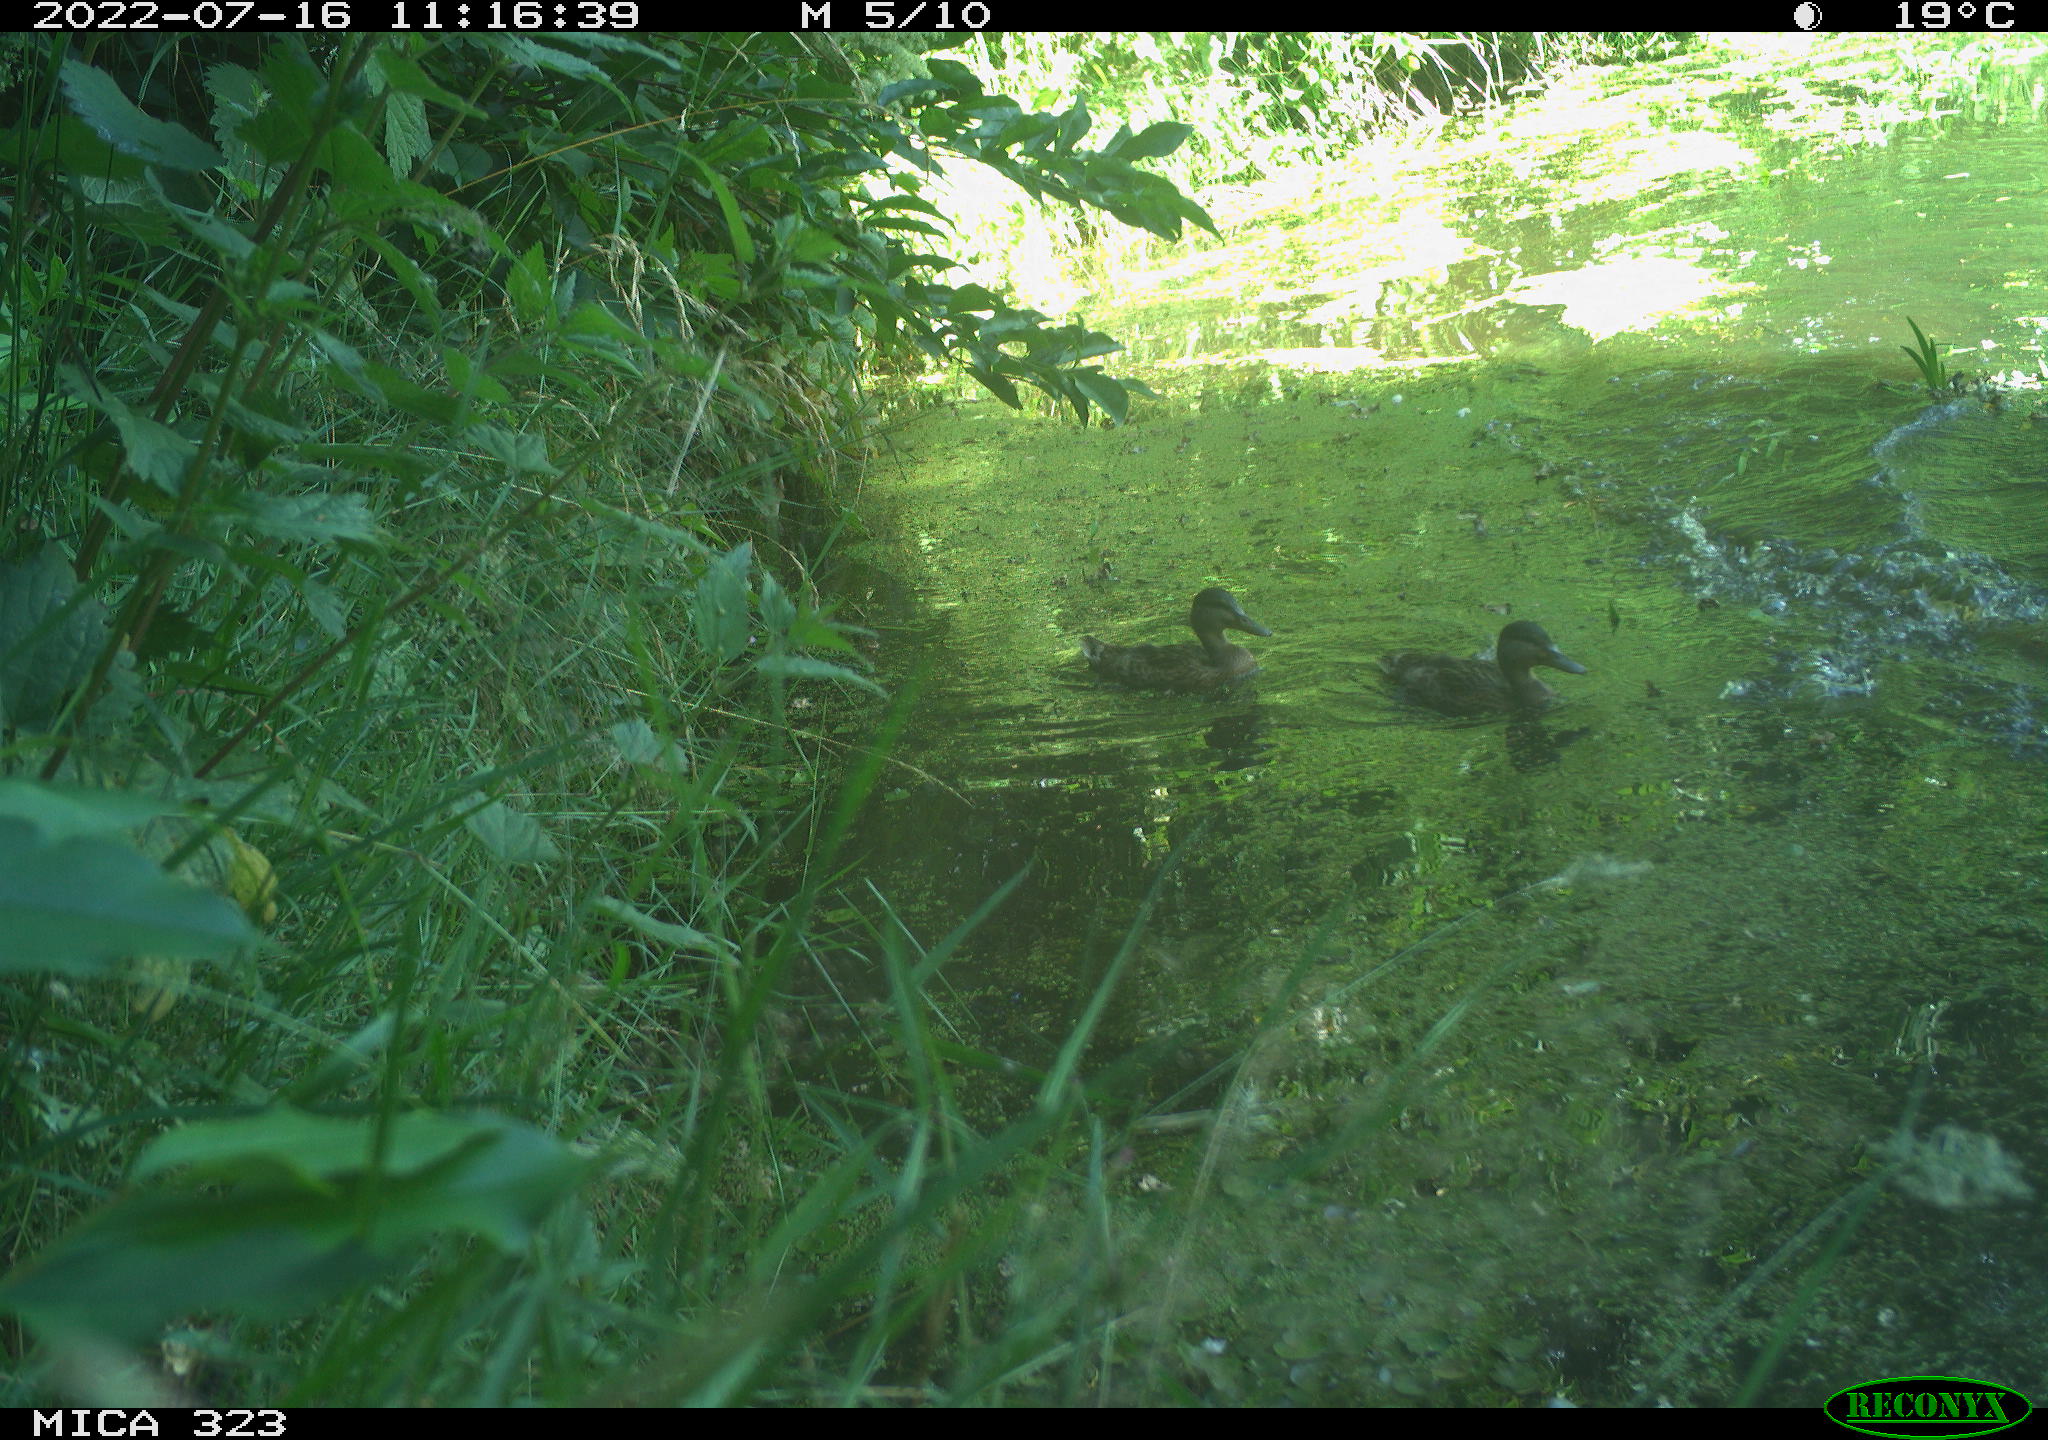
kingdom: Animalia
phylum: Chordata
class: Aves
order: Anseriformes
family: Anatidae
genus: Anas
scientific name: Anas platyrhynchos
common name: Mallard
